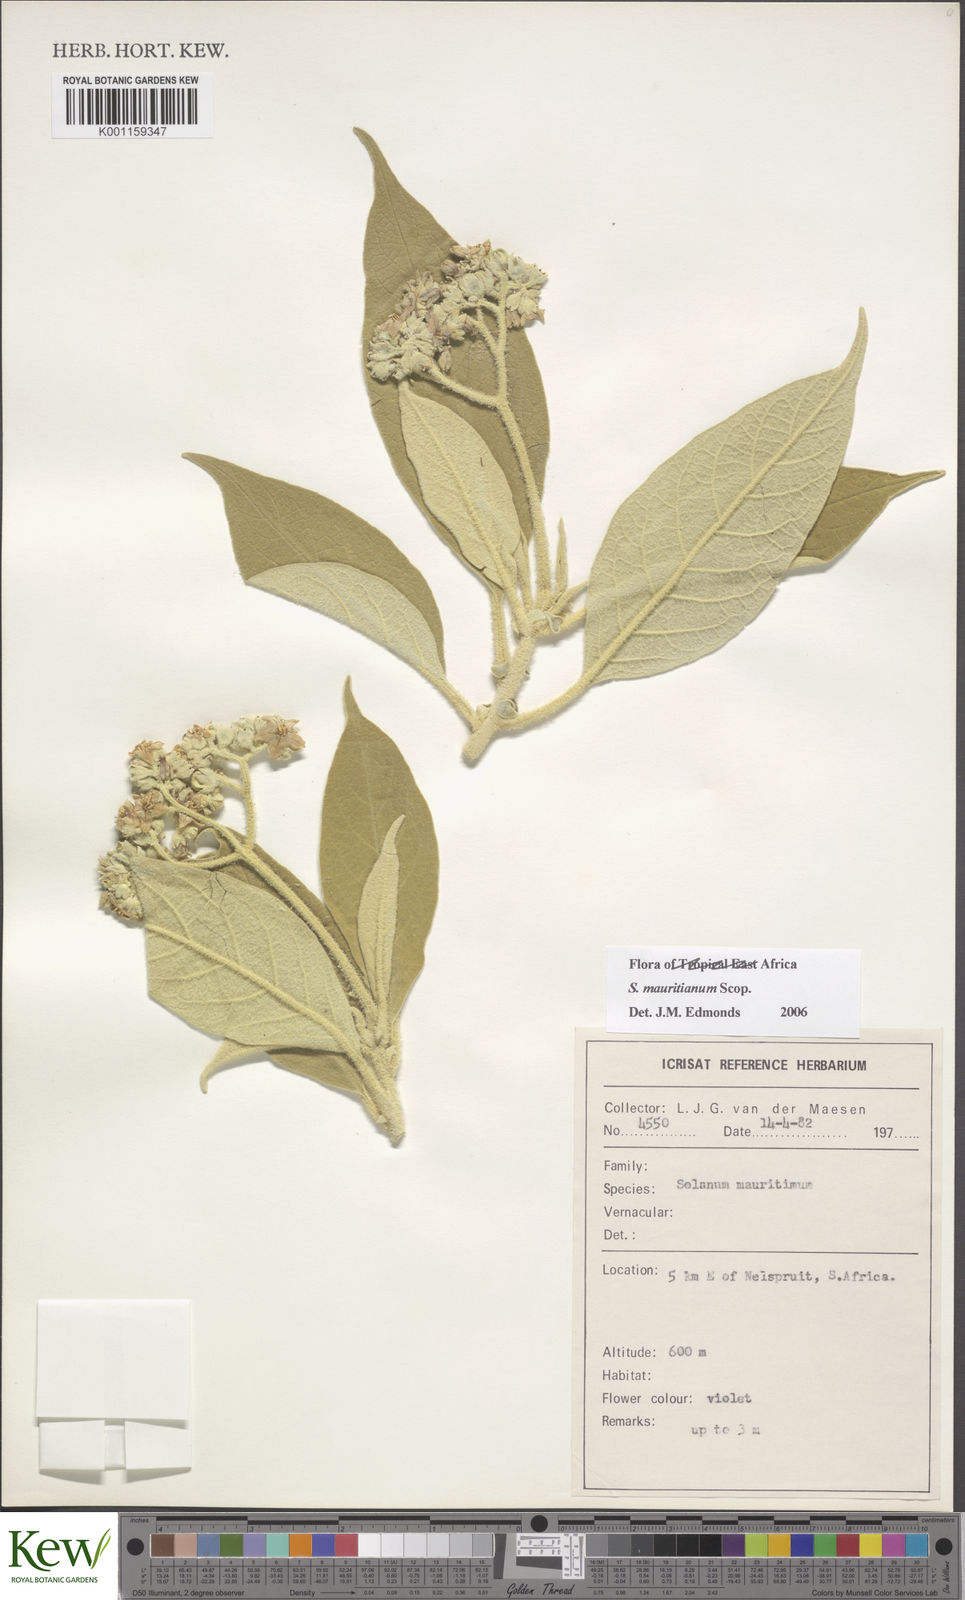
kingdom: Plantae
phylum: Tracheophyta
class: Magnoliopsida
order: Solanales
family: Solanaceae
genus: Solanum
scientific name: Solanum mauritianum
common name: Earleaf nightshade
